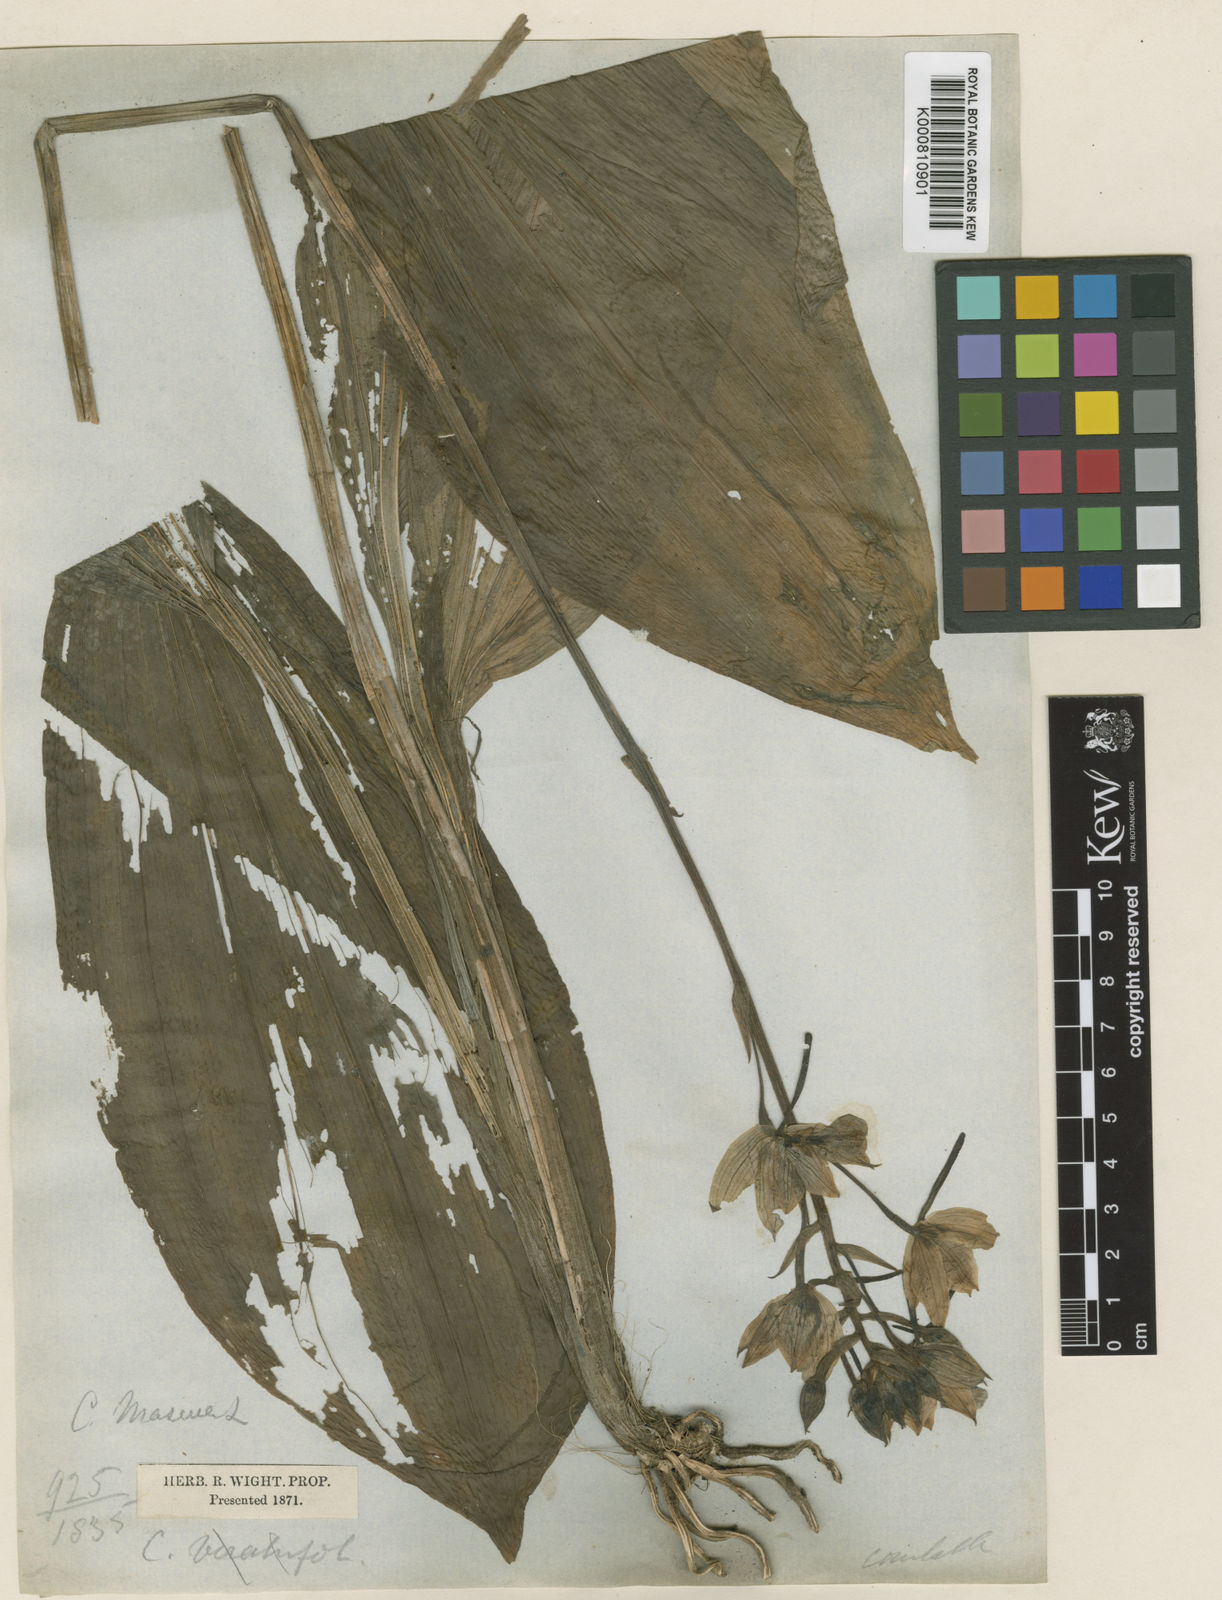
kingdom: Plantae
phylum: Tracheophyta
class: Liliopsida
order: Asparagales
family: Orchidaceae
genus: Calanthe
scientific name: Calanthe masuca
